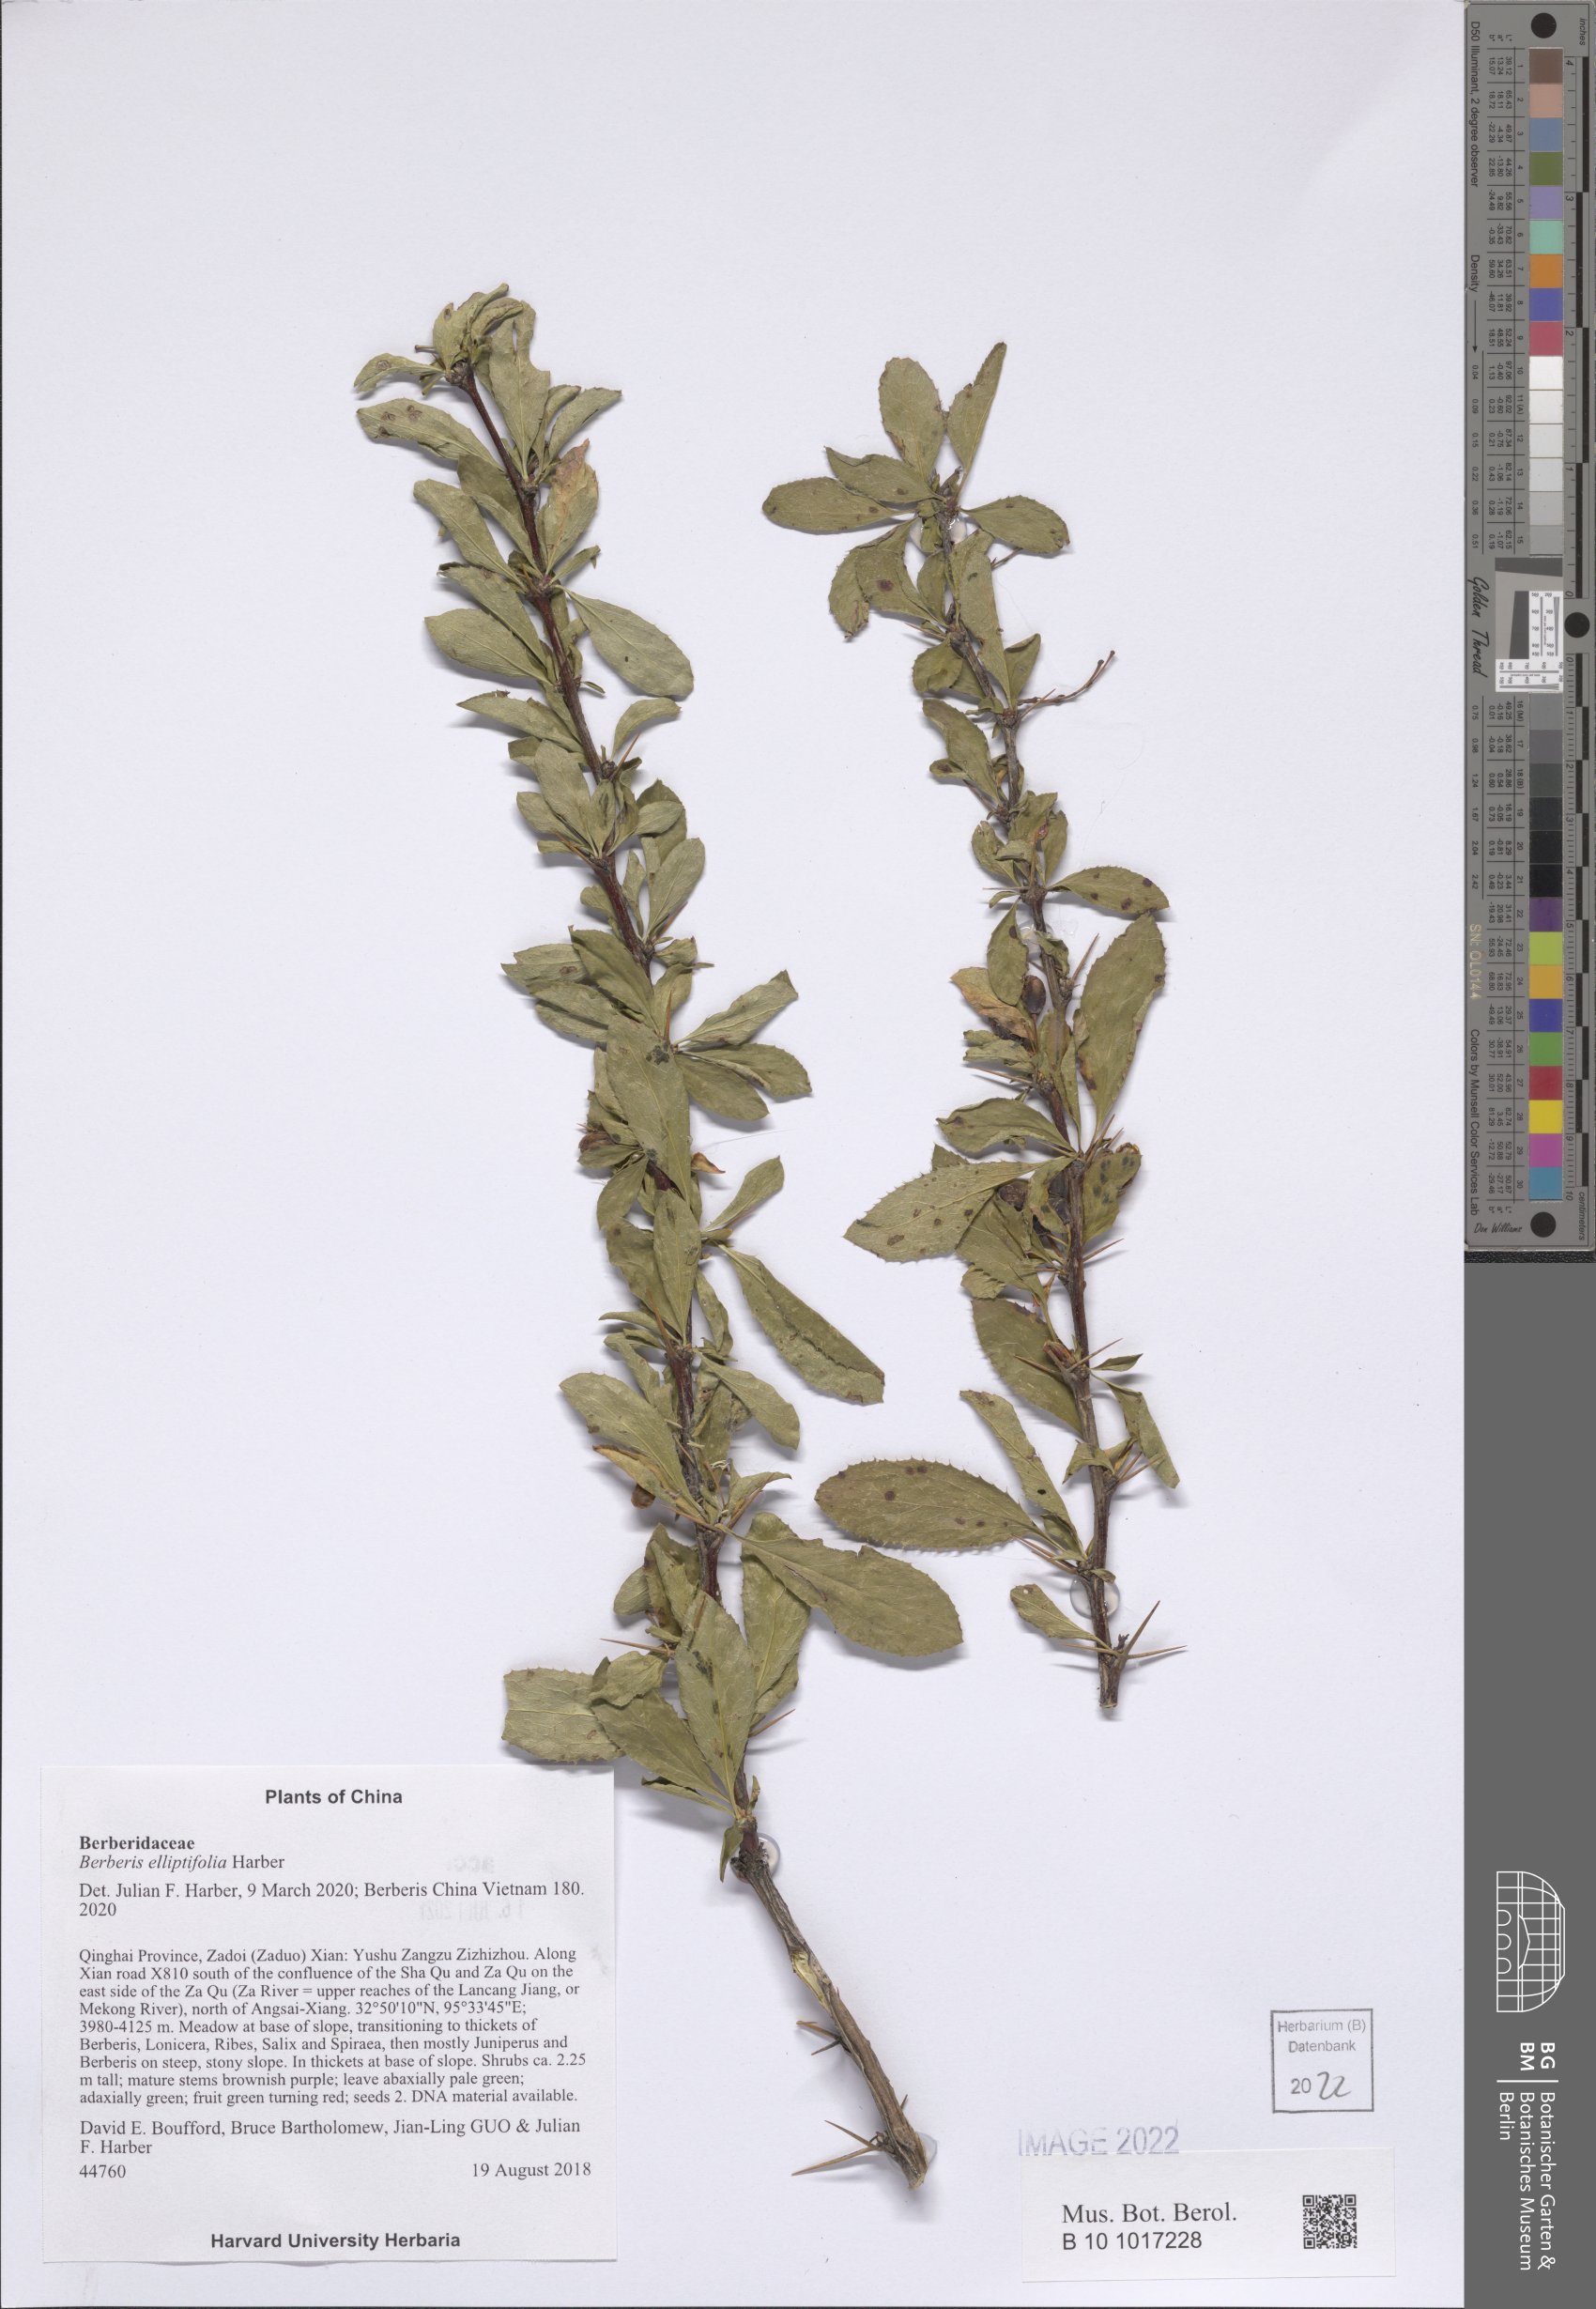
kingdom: Plantae
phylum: Tracheophyta
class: Magnoliopsida
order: Ranunculales
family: Berberidaceae
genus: Berberis
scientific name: Berberis elliptifolia
